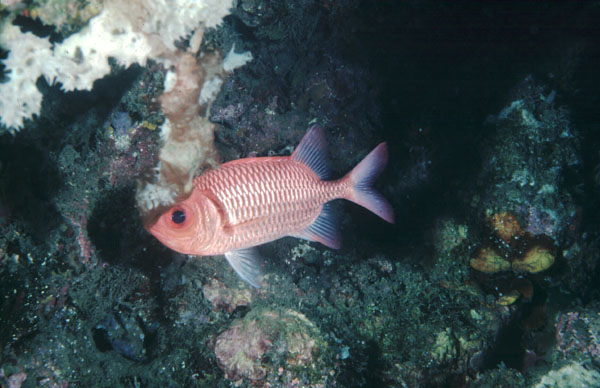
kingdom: Animalia
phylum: Chordata
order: Beryciformes
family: Holocentridae
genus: Myripristis
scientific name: Myripristis hexagona
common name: Blacktip soldierfish
